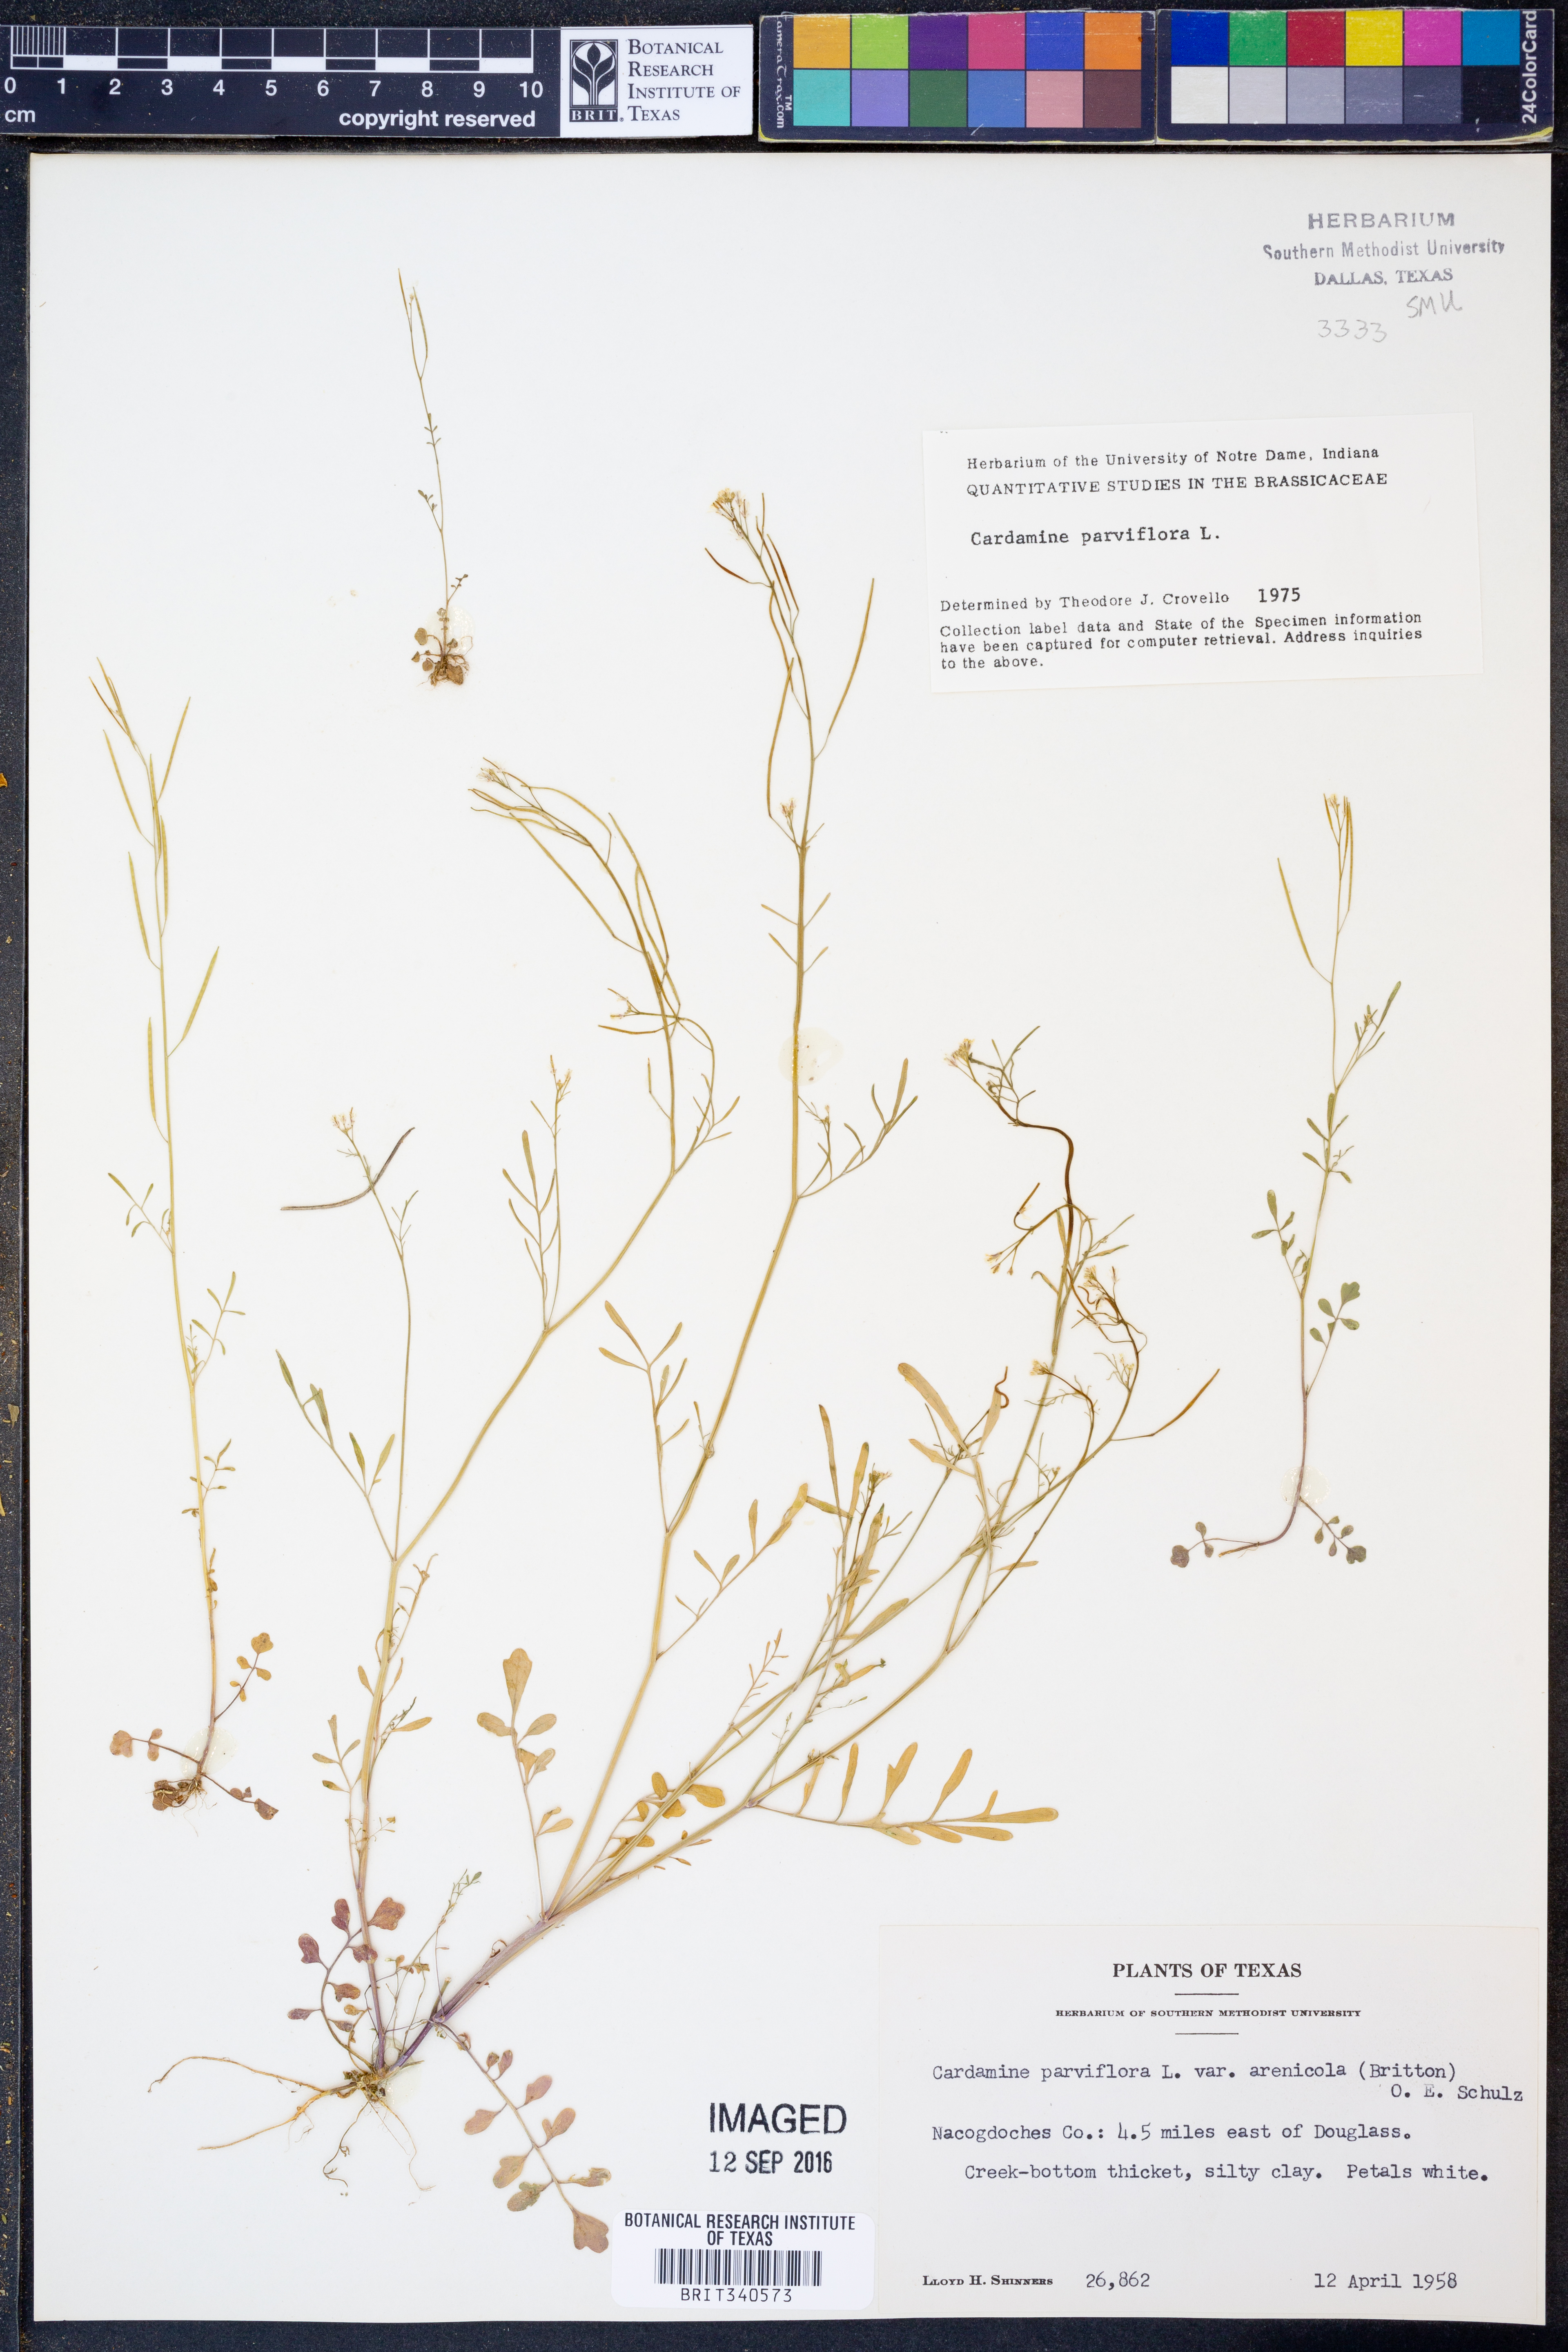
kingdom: Plantae
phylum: Tracheophyta
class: Magnoliopsida
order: Brassicales
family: Brassicaceae
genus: Cardamine
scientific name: Cardamine parviflora
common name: Sand bittercress
